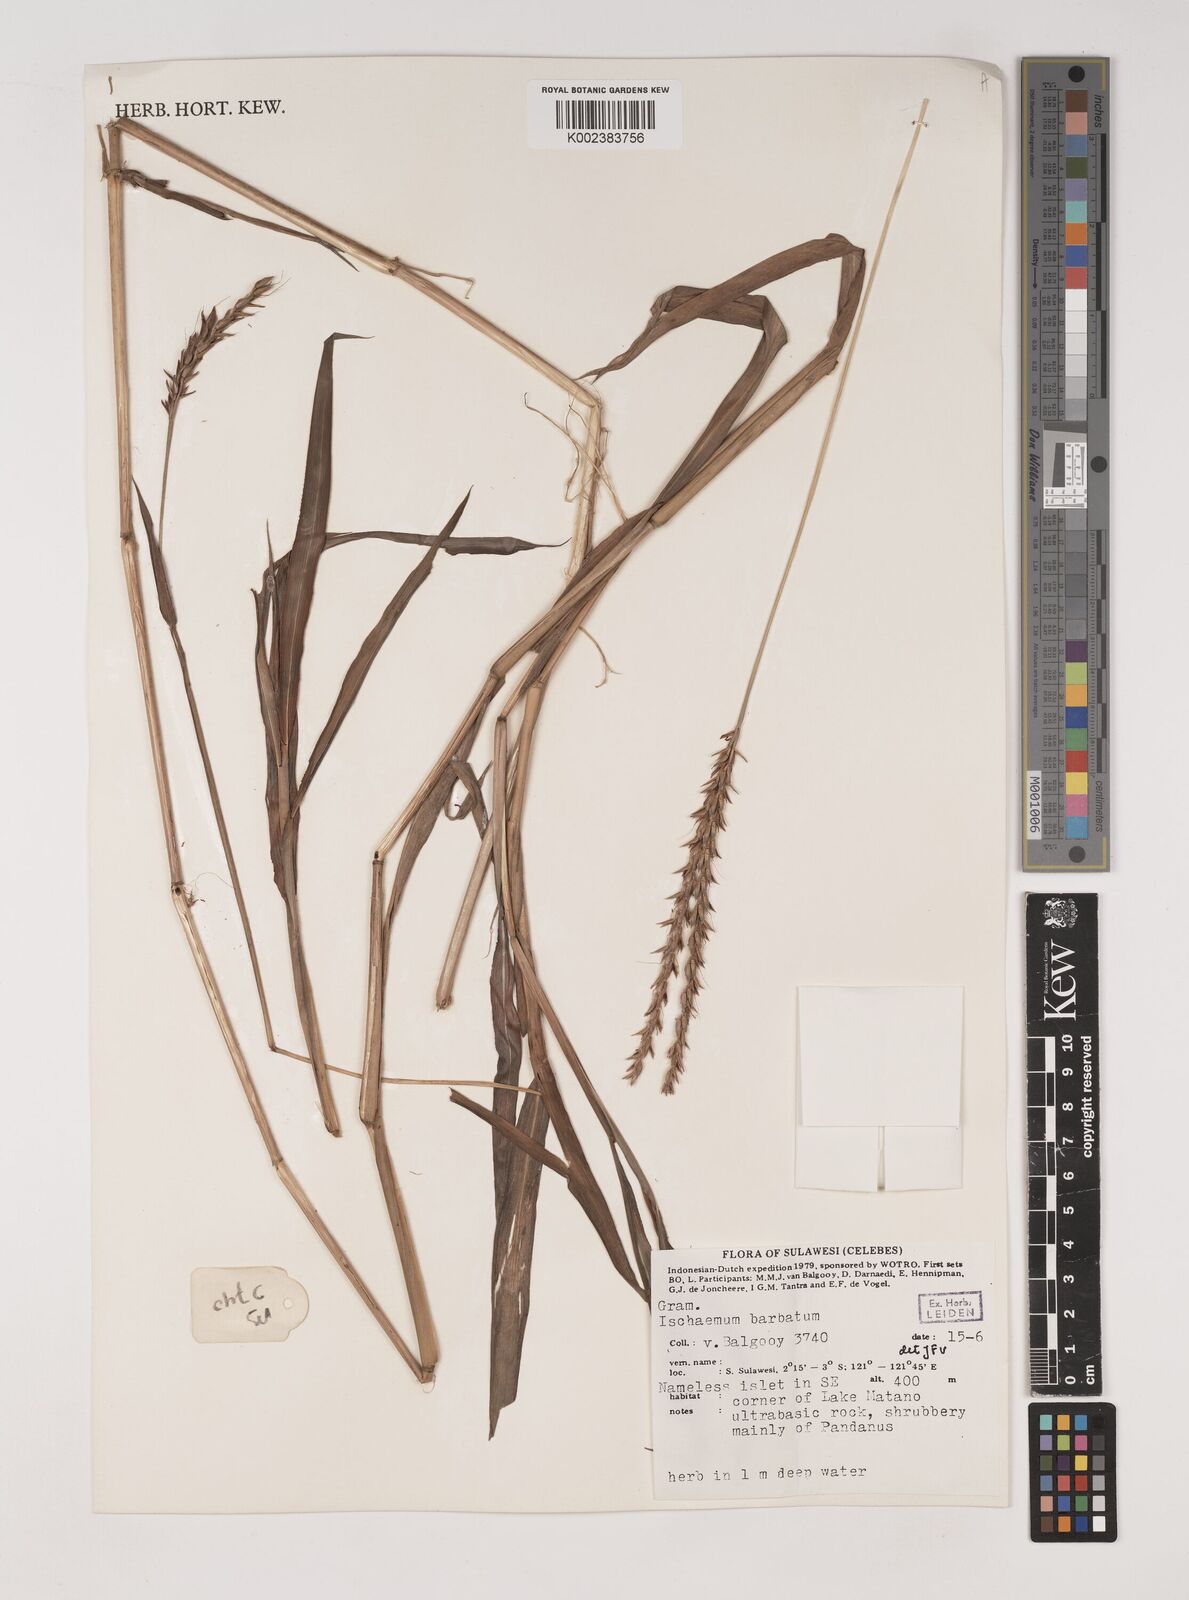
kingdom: Plantae
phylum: Tracheophyta
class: Liliopsida
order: Poales
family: Poaceae
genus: Ischaemum
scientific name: Ischaemum barbatum
